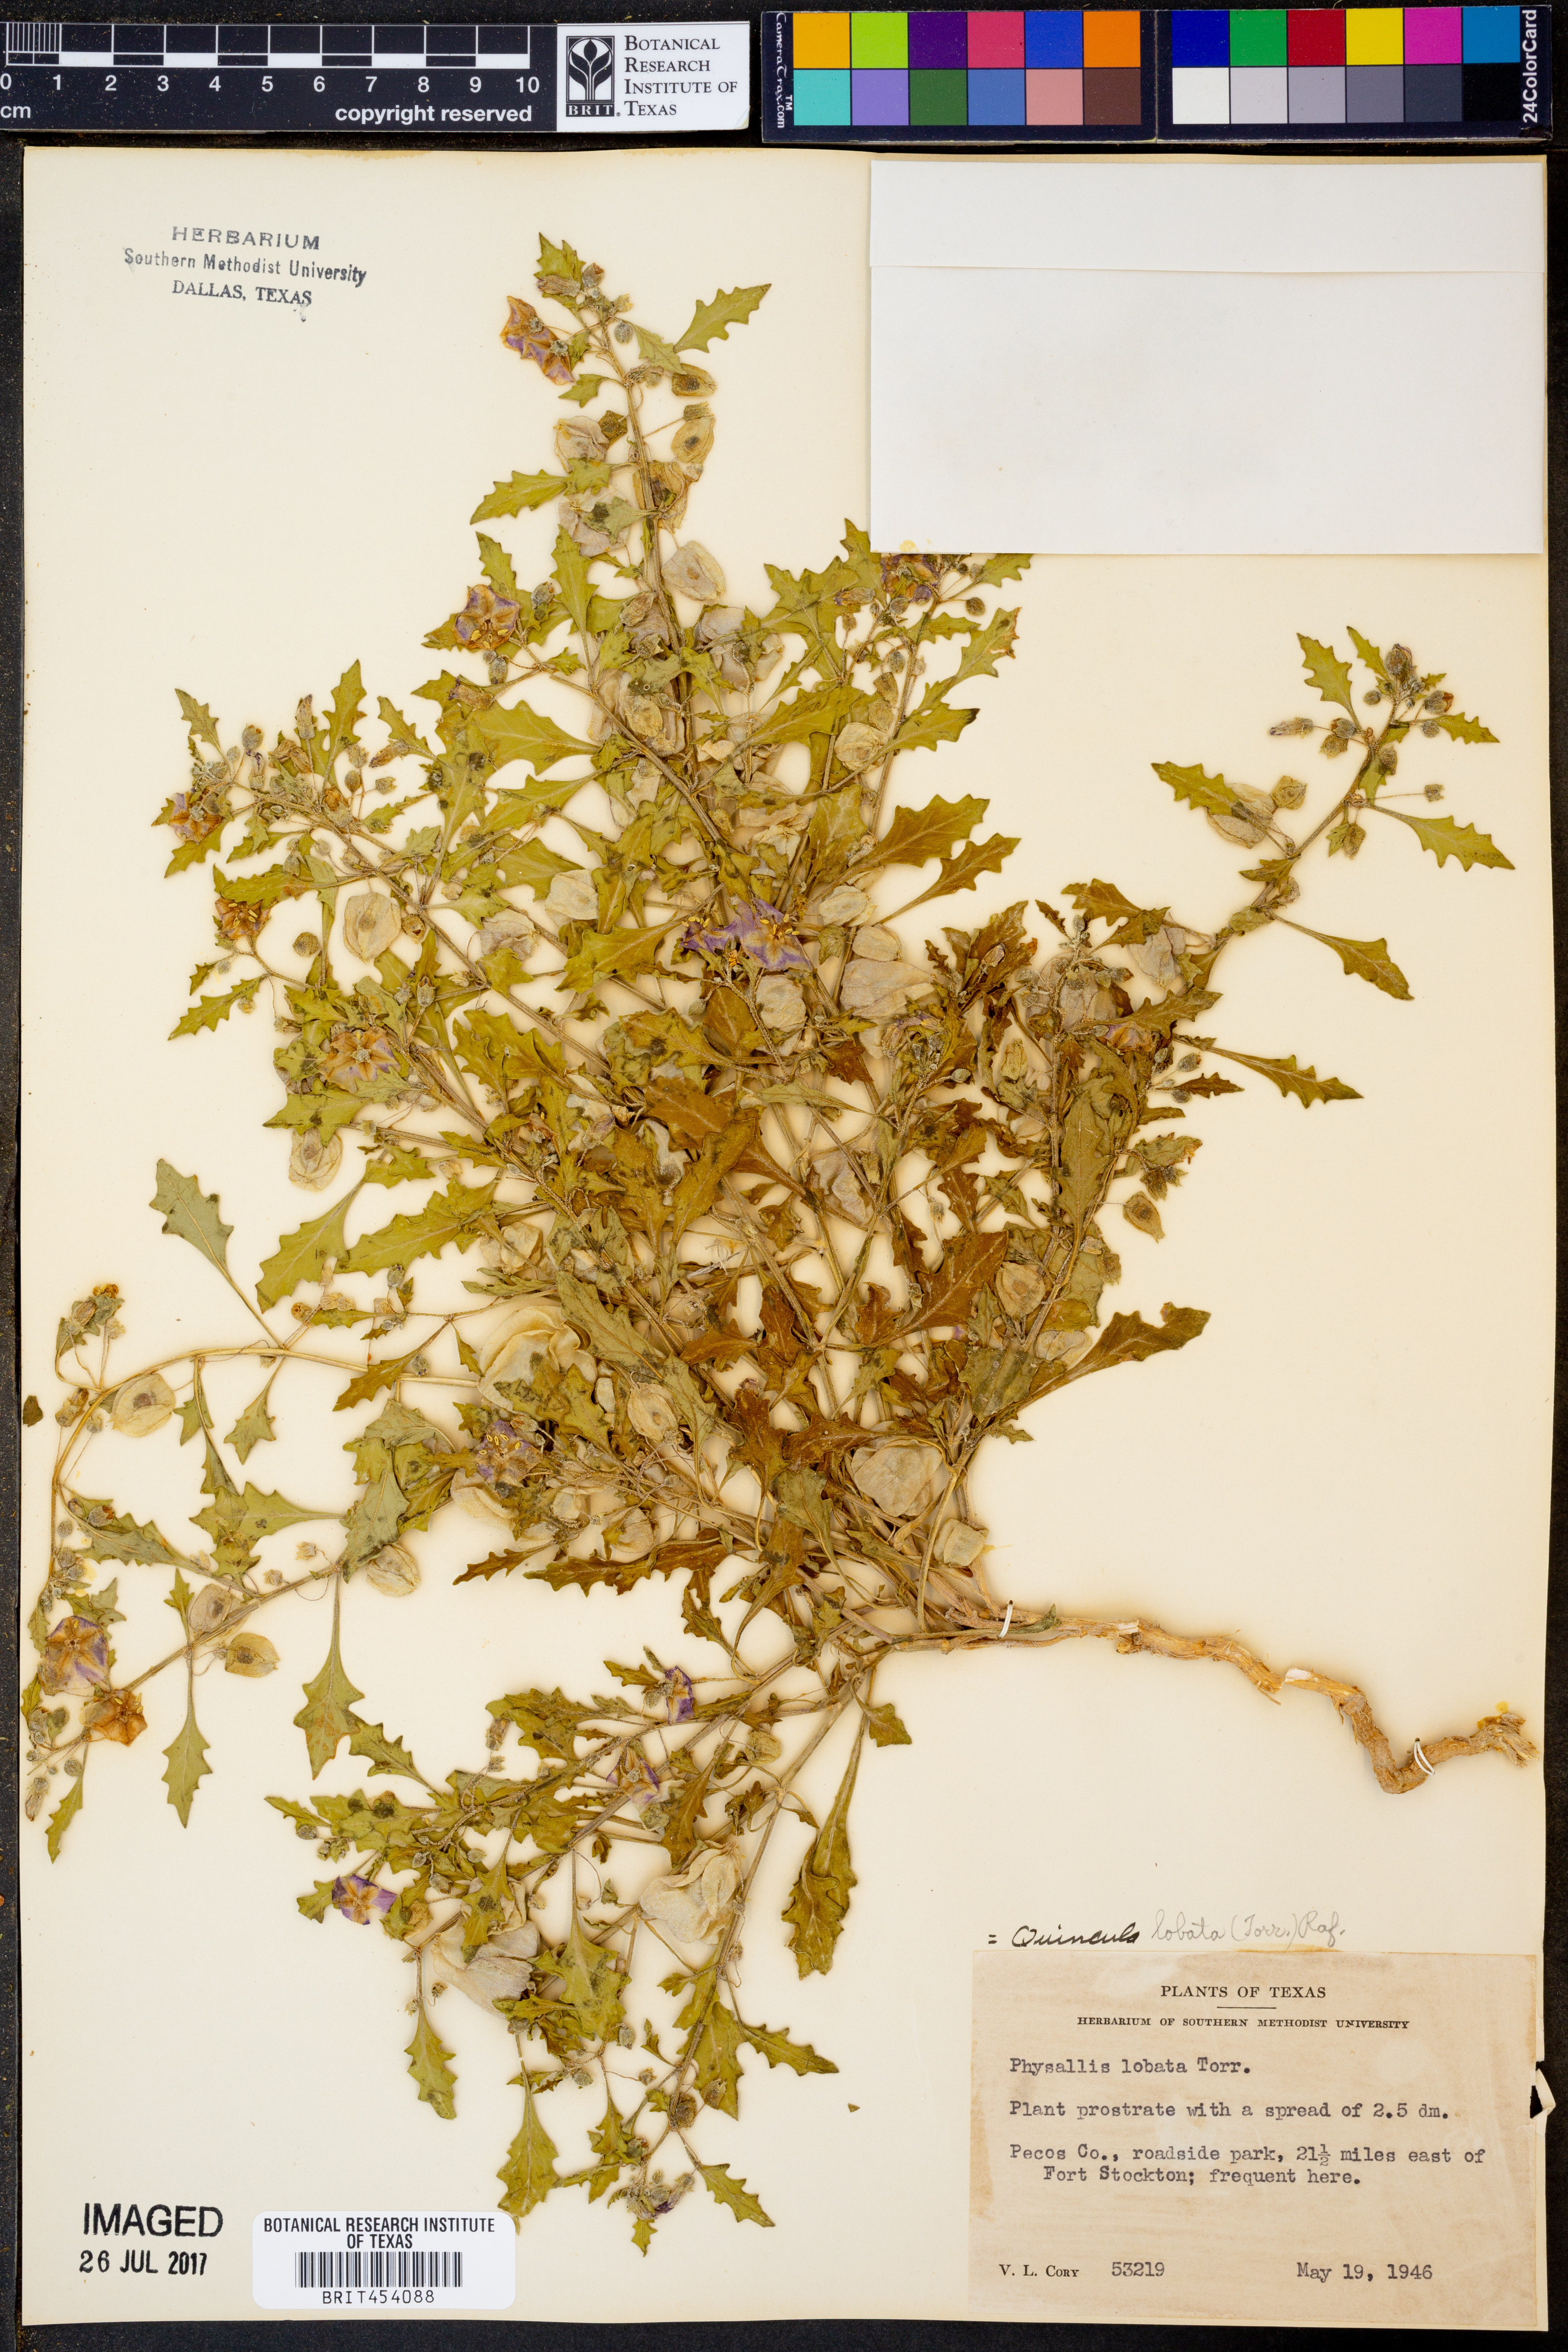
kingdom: Plantae
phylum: Tracheophyta
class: Magnoliopsida
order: Solanales
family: Solanaceae
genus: Quincula
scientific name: Quincula lobata
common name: Purple-ground-cherry
